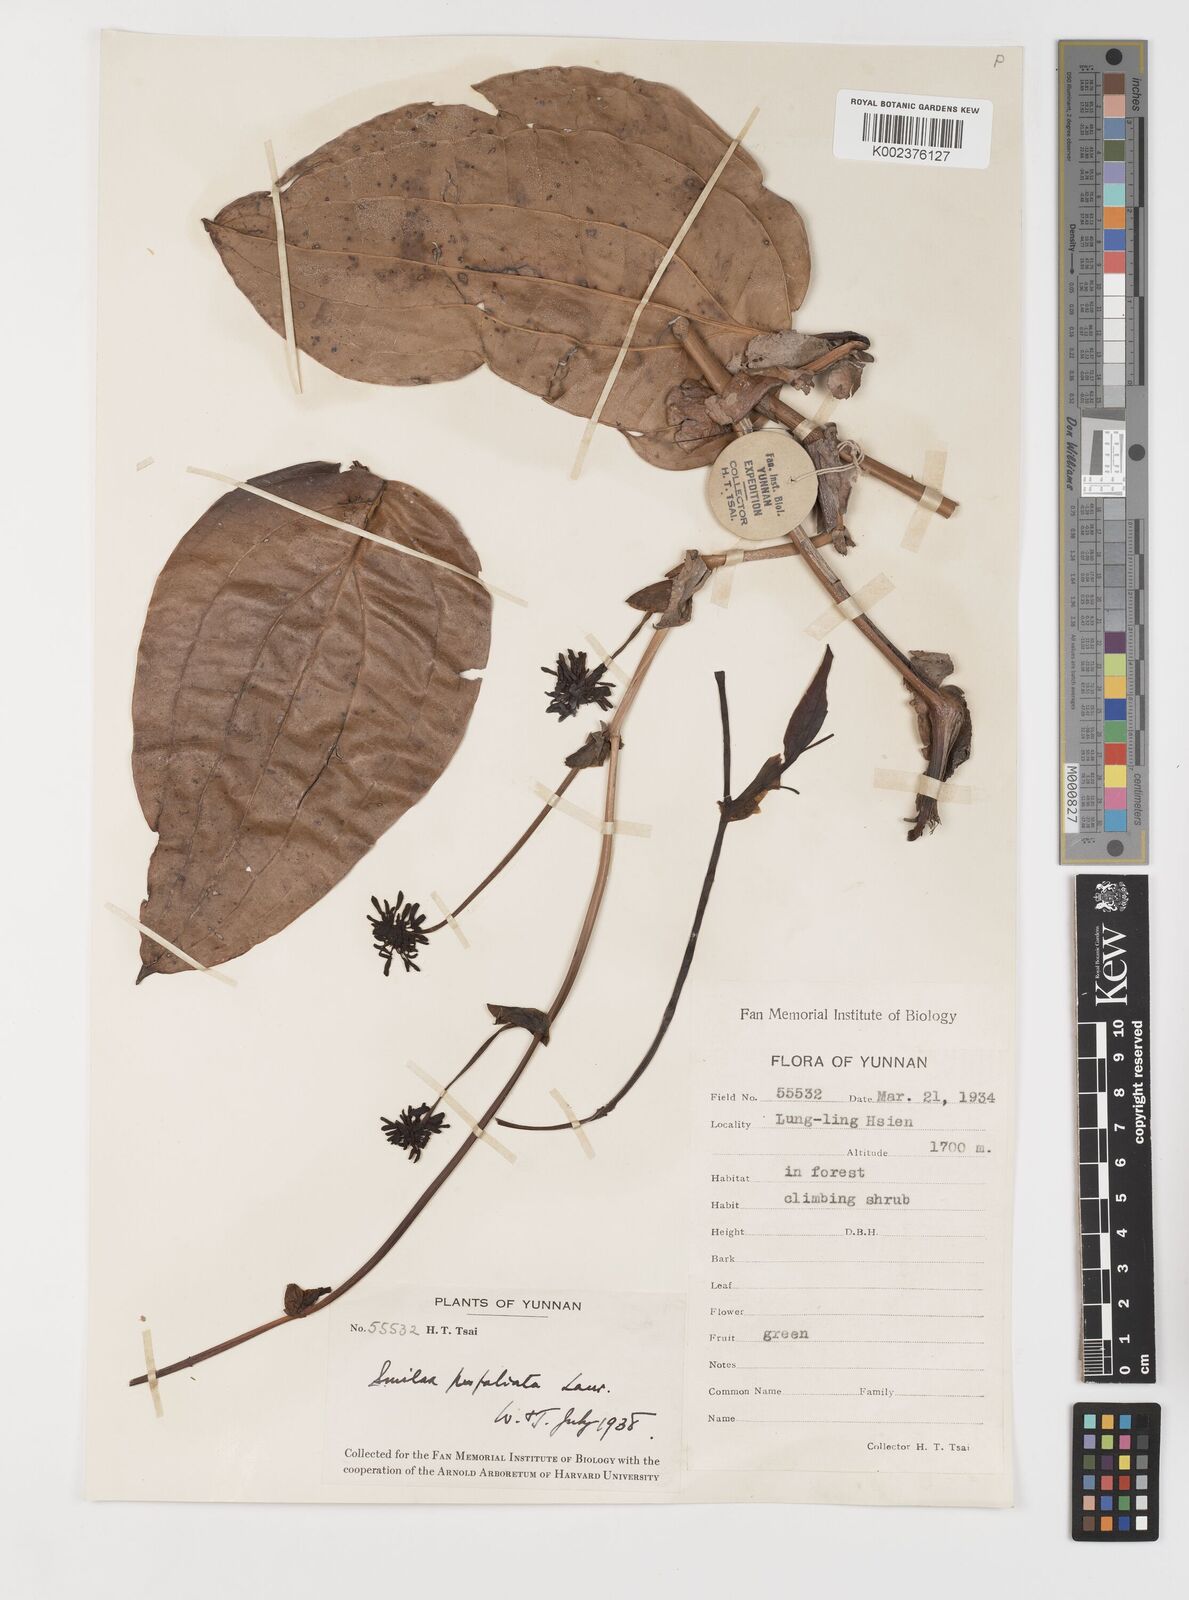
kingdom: Plantae
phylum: Tracheophyta
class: Liliopsida
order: Liliales
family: Smilacaceae
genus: Smilax
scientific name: Smilax ovalifolia
